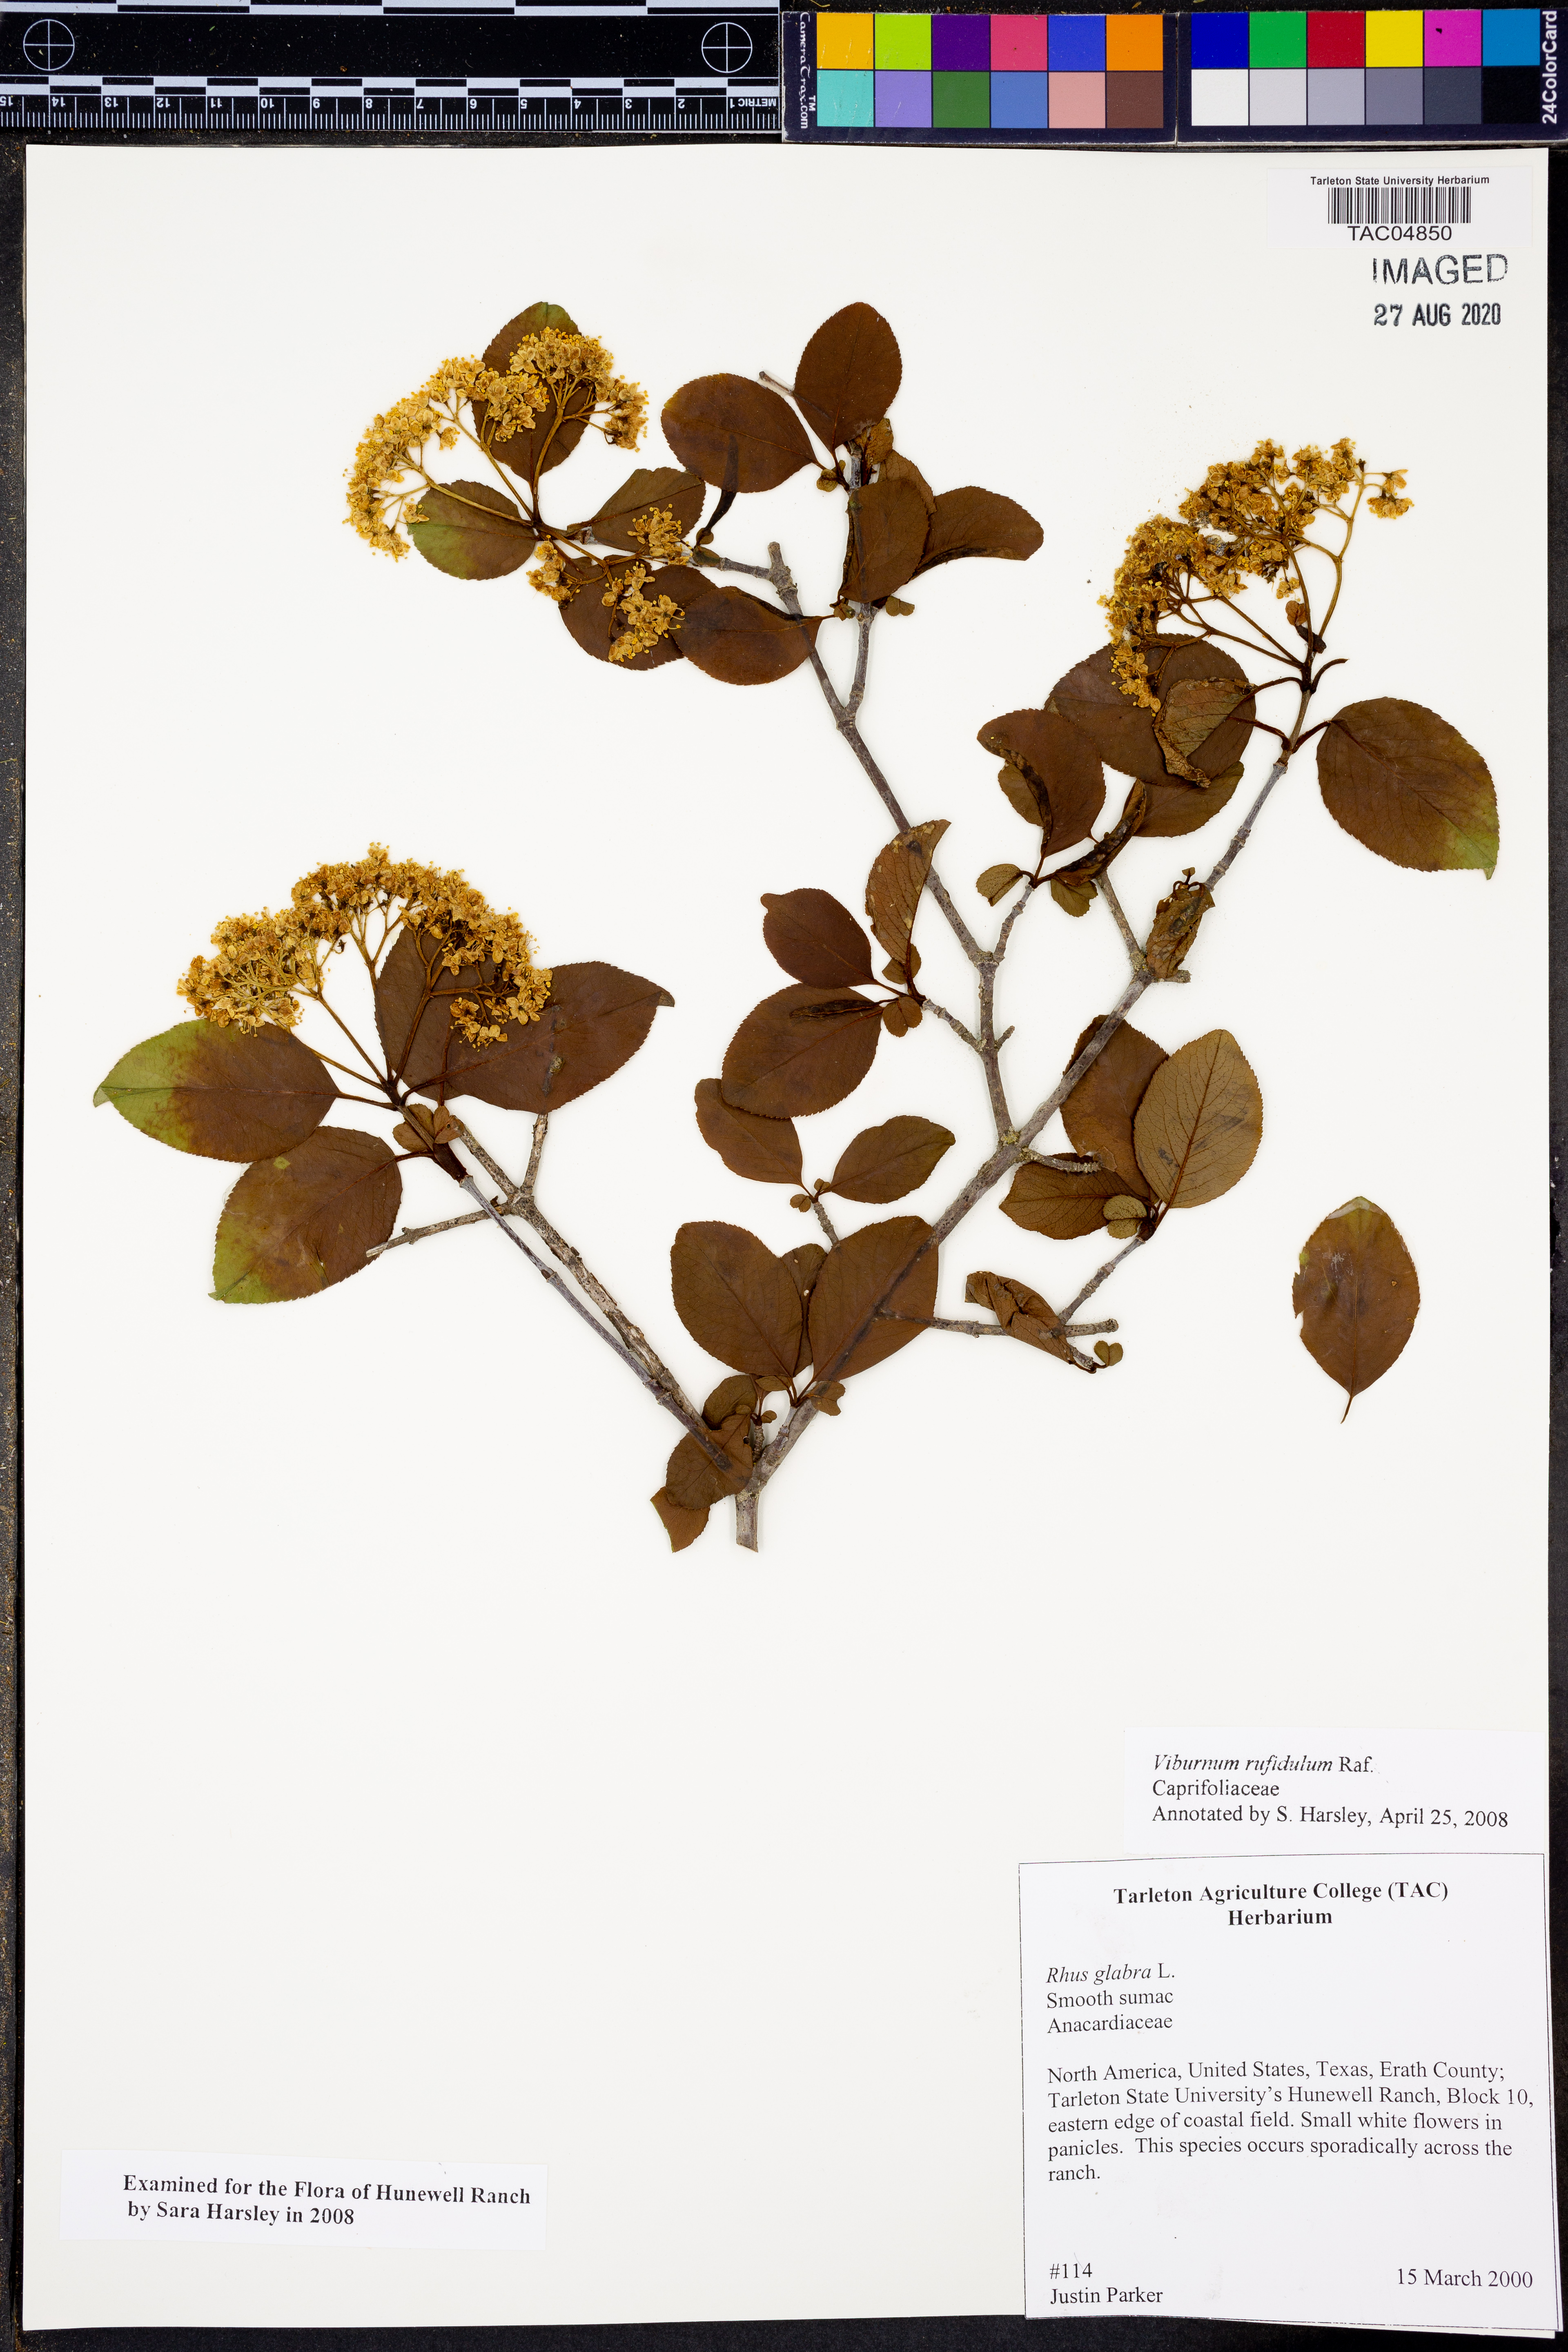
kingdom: Plantae
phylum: Tracheophyta
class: Magnoliopsida
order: Dipsacales
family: Viburnaceae
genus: Viburnum
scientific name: Viburnum rufidulum
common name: Blue haw
